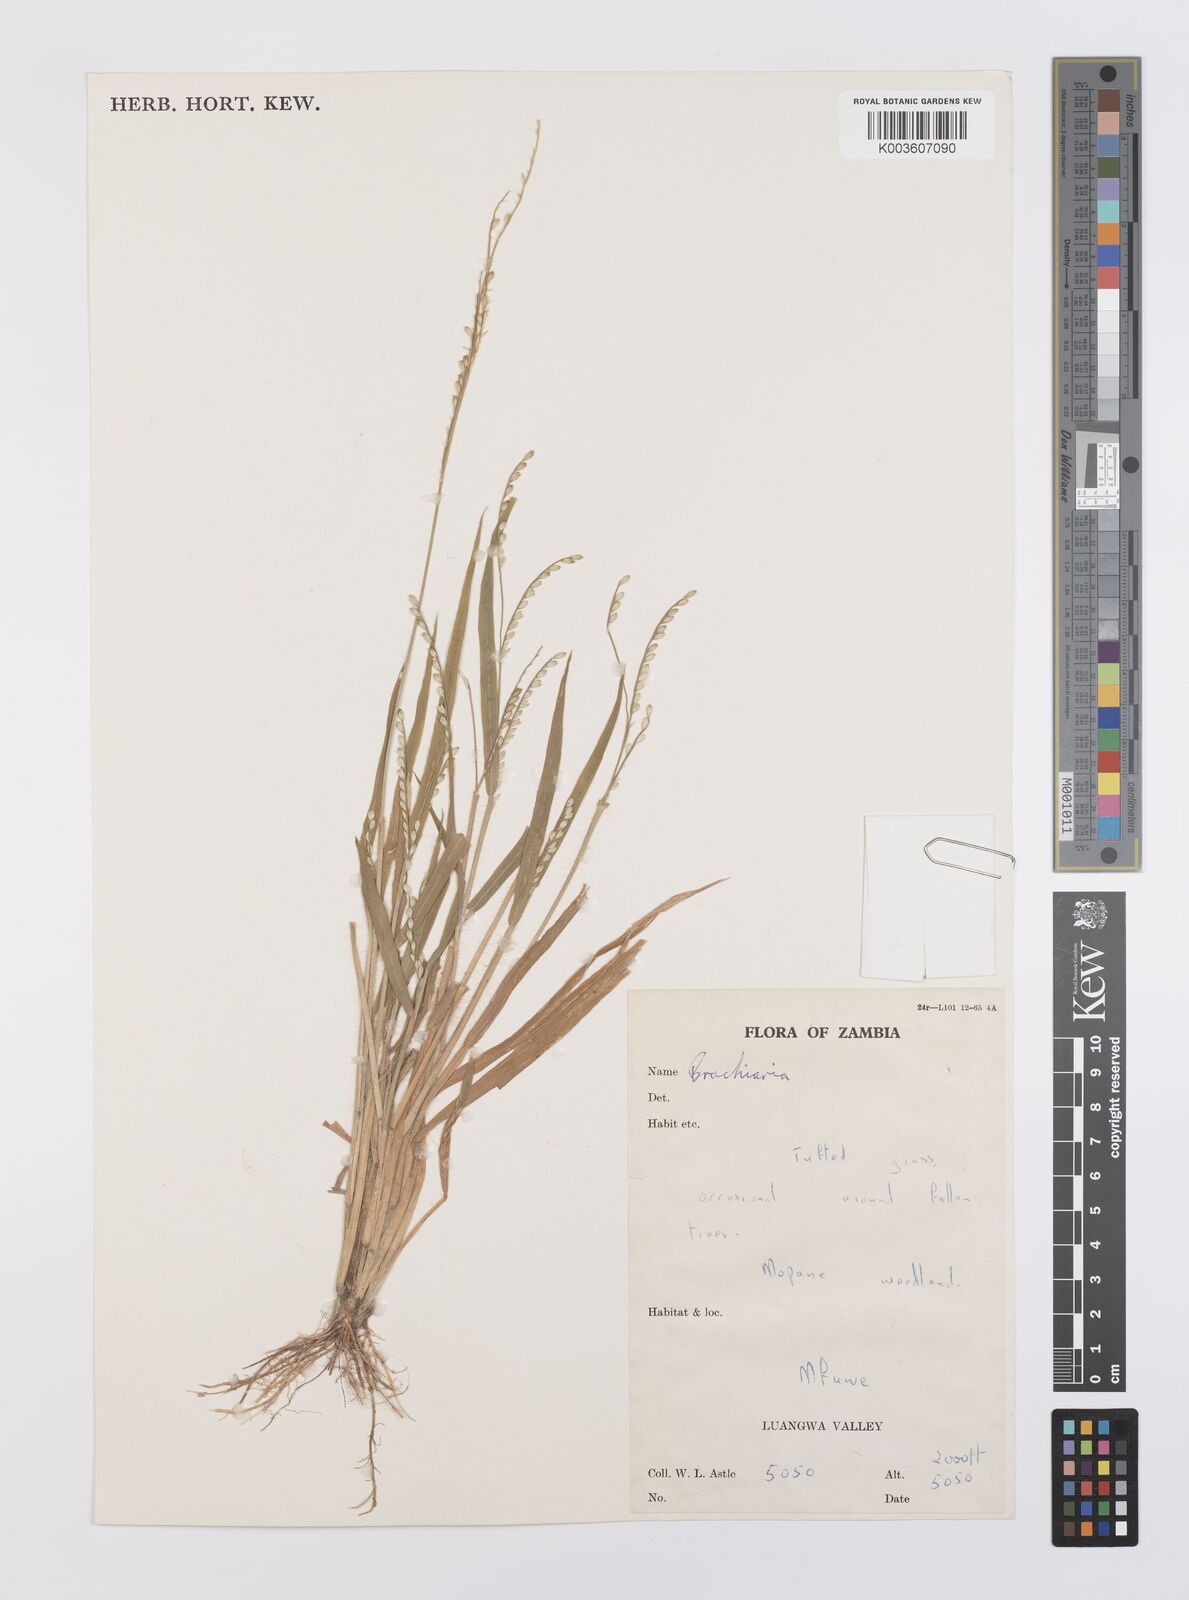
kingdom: Plantae
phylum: Tracheophyta
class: Liliopsida
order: Poales
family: Poaceae
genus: Urochloa
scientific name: Urochloa xantholeuca
